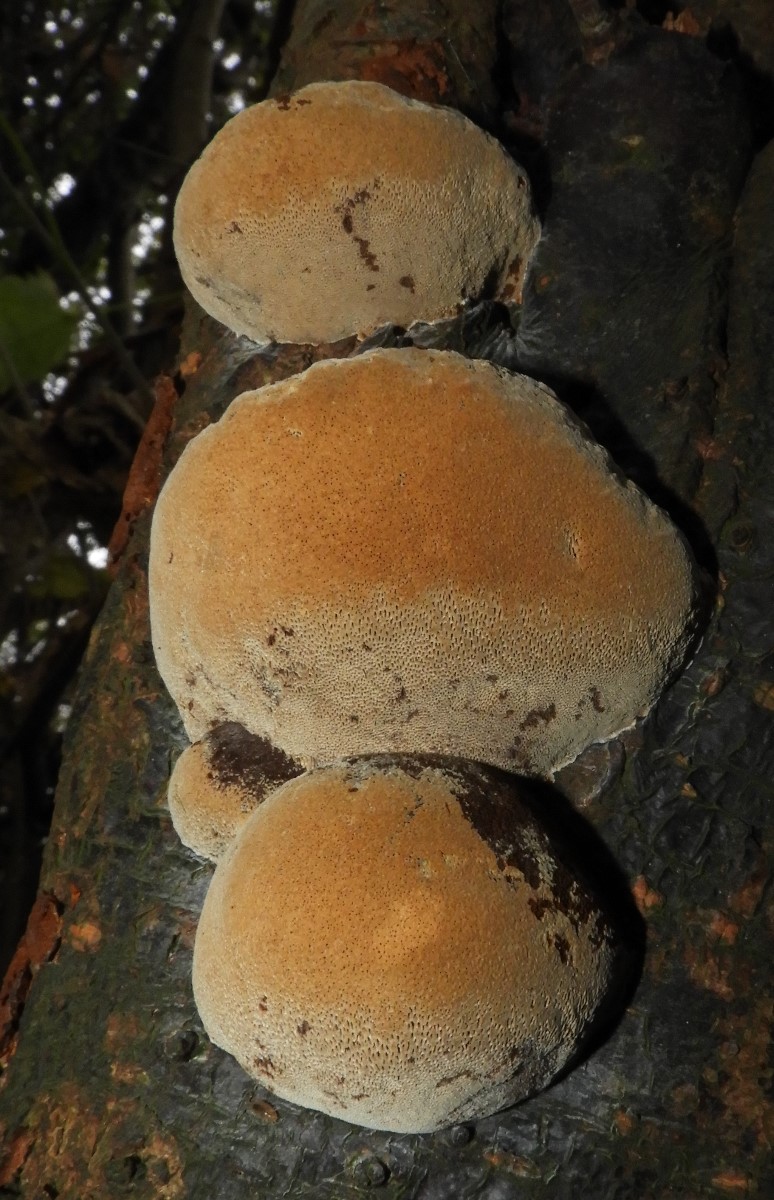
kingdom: Fungi
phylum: Basidiomycota
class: Agaricomycetes
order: Hymenochaetales
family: Hymenochaetaceae
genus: Phellinus
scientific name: Phellinus pomaceus
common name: blomme-ildporesvamp
